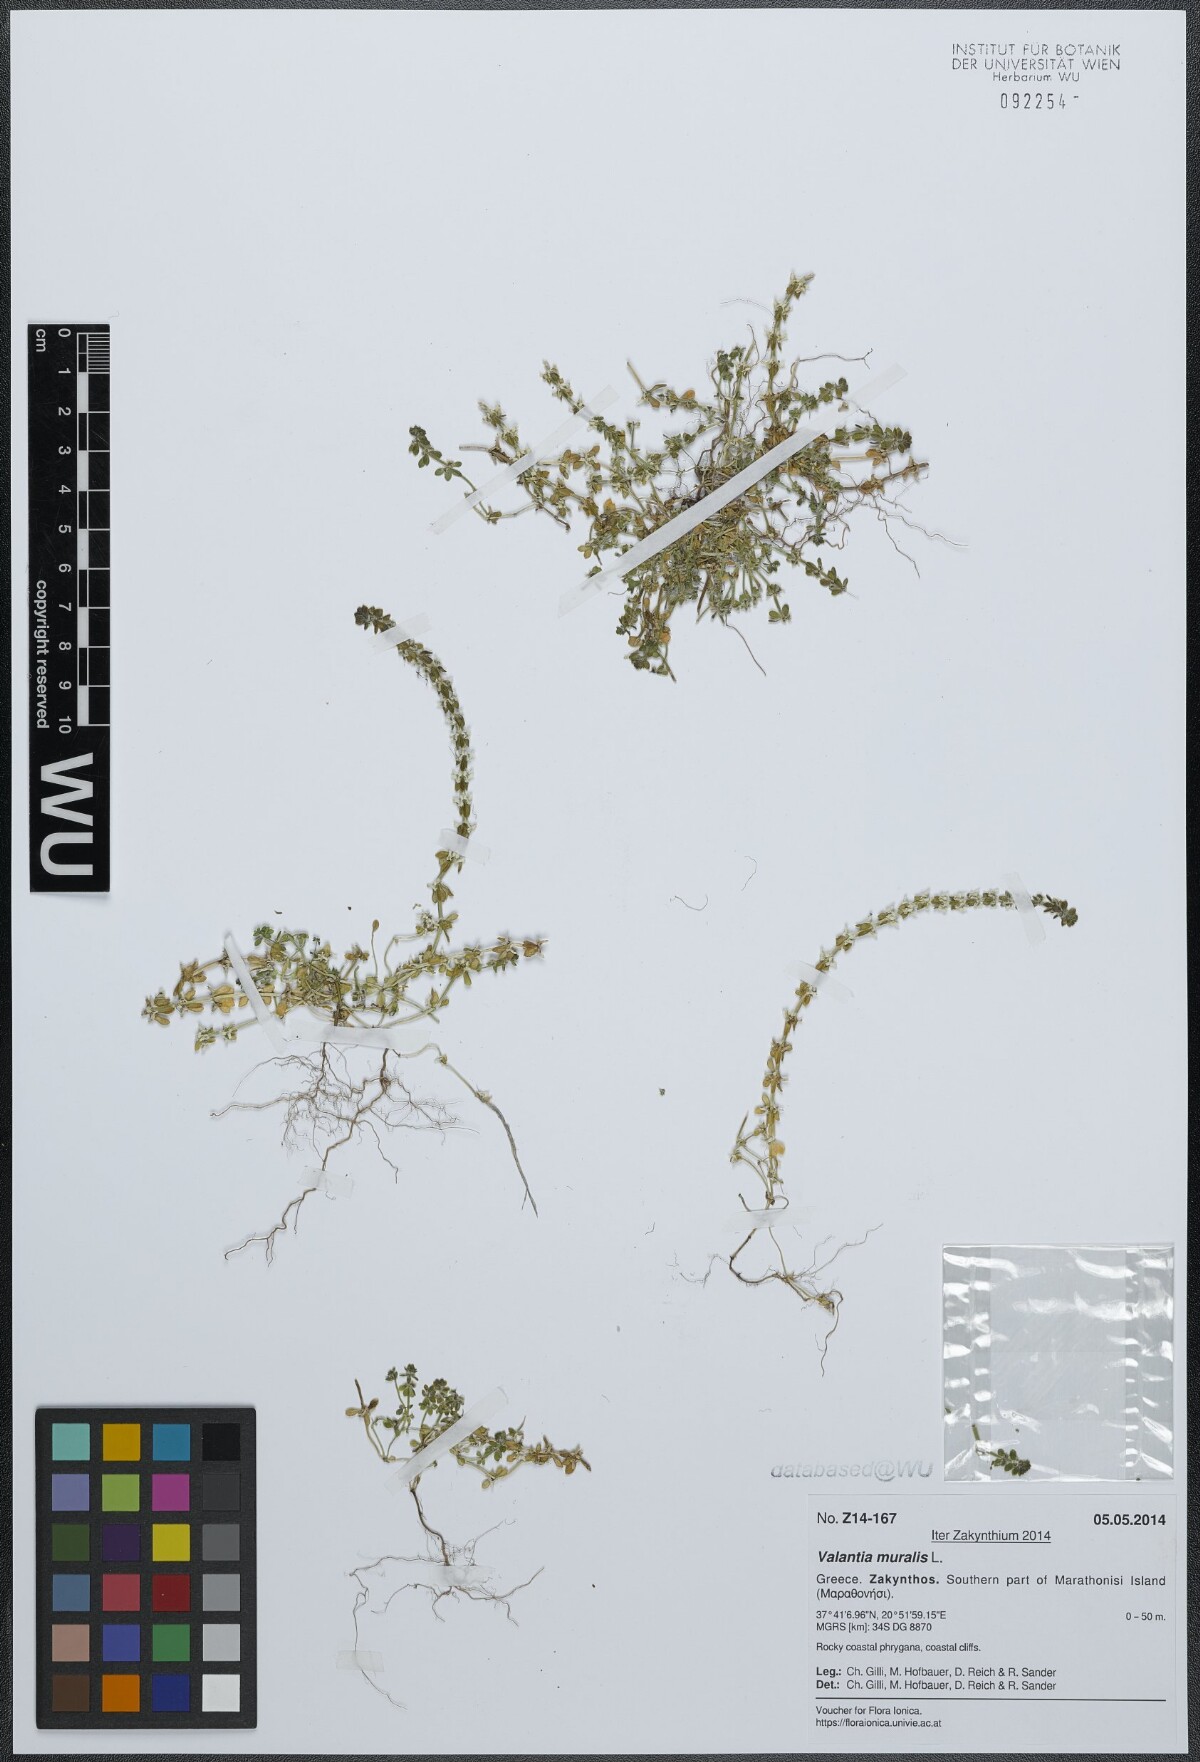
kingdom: Plantae
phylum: Tracheophyta
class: Magnoliopsida
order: Gentianales
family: Rubiaceae
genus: Valantia
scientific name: Valantia muralis
